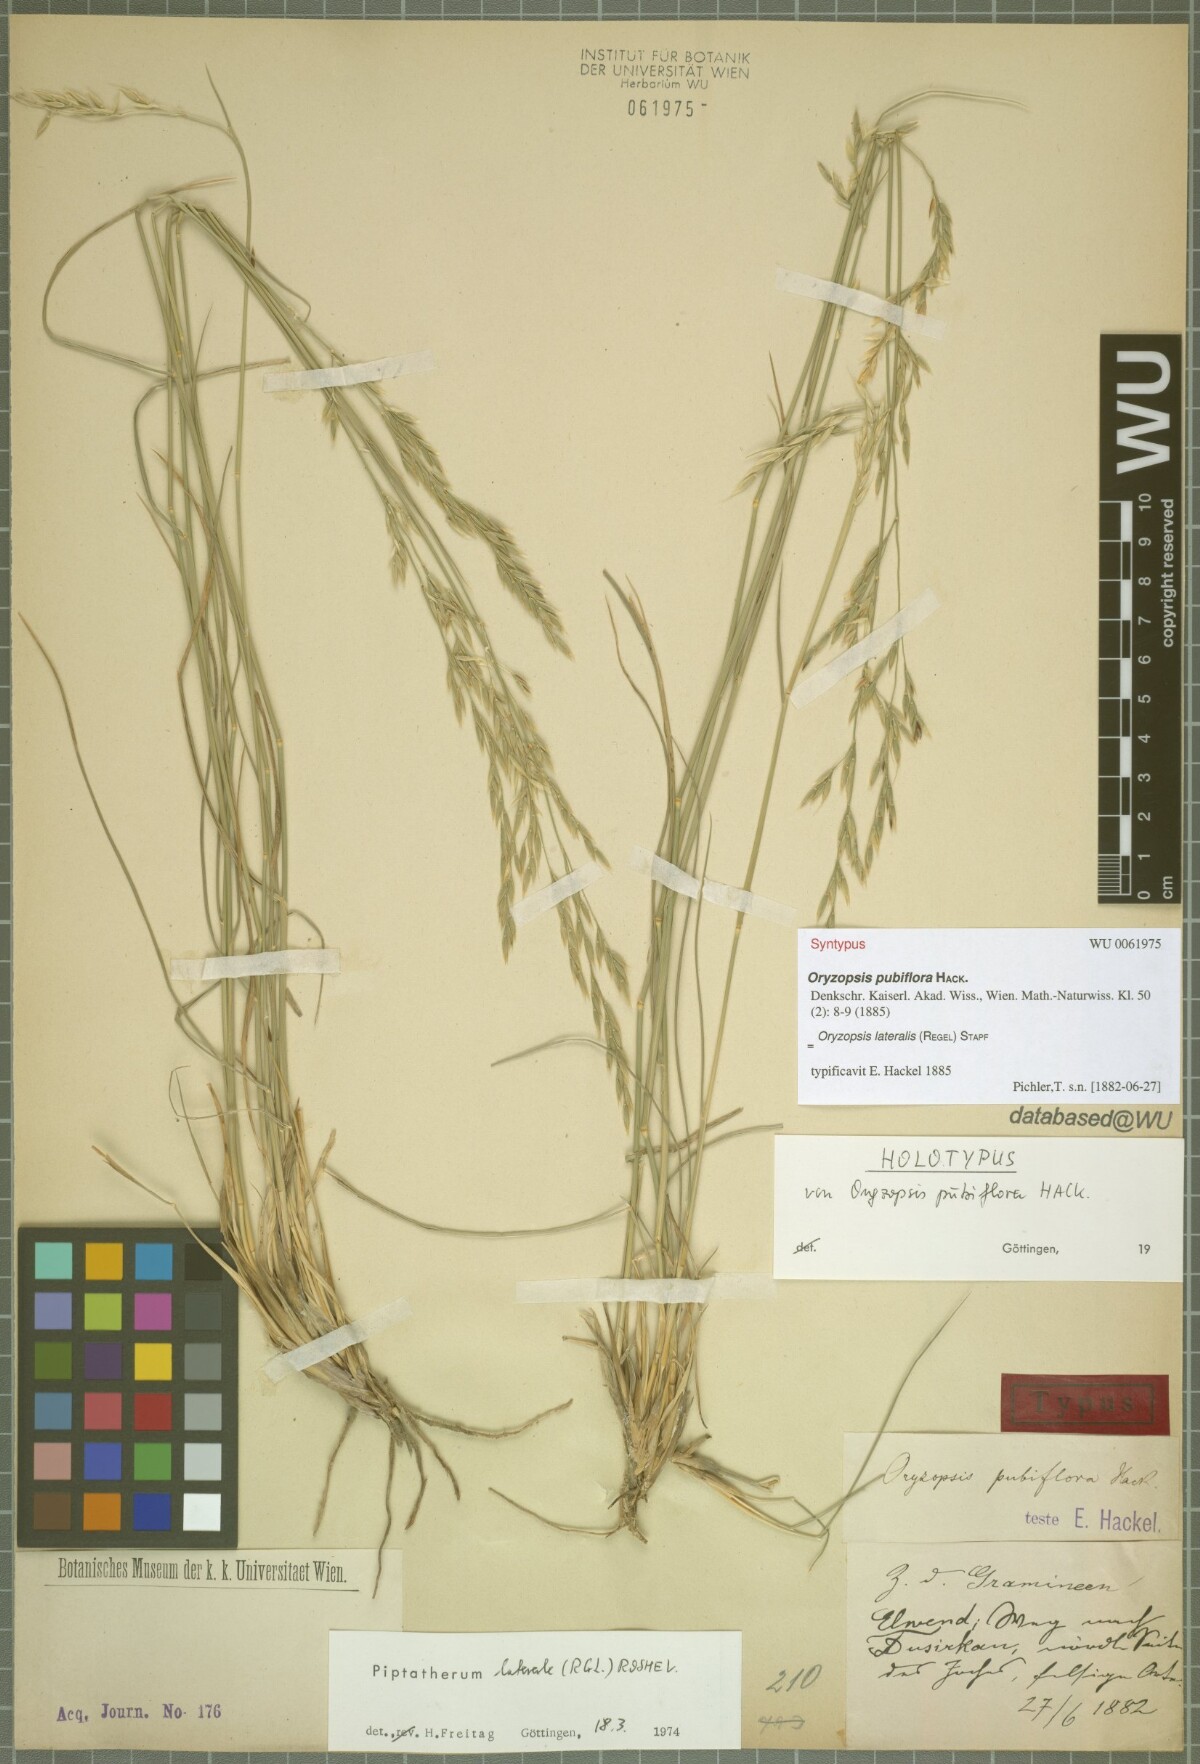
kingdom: Plantae
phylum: Tracheophyta
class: Liliopsida
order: Poales
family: Poaceae
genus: Piptatherum
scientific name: Piptatherum laterale
